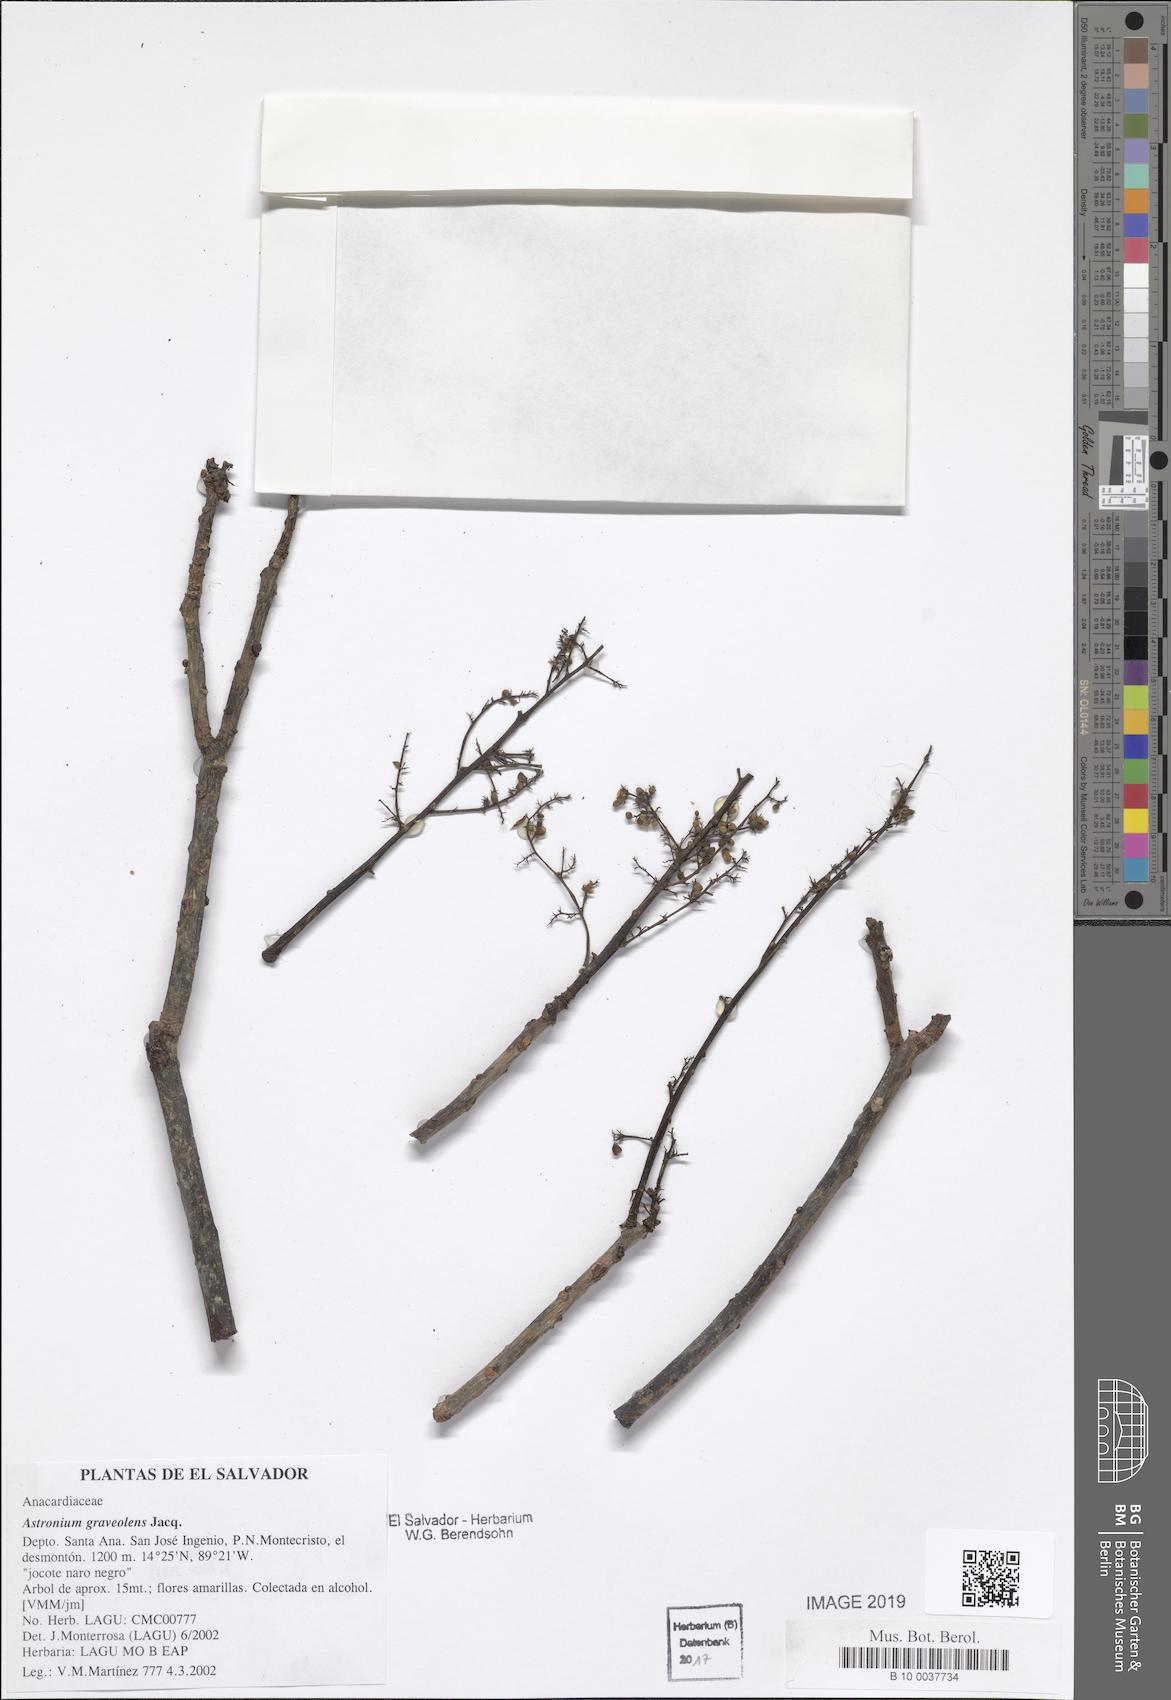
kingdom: Plantae
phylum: Tracheophyta
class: Magnoliopsida
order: Sapindales
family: Anacardiaceae
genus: Astronium
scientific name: Astronium graveolens
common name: Glassywood
